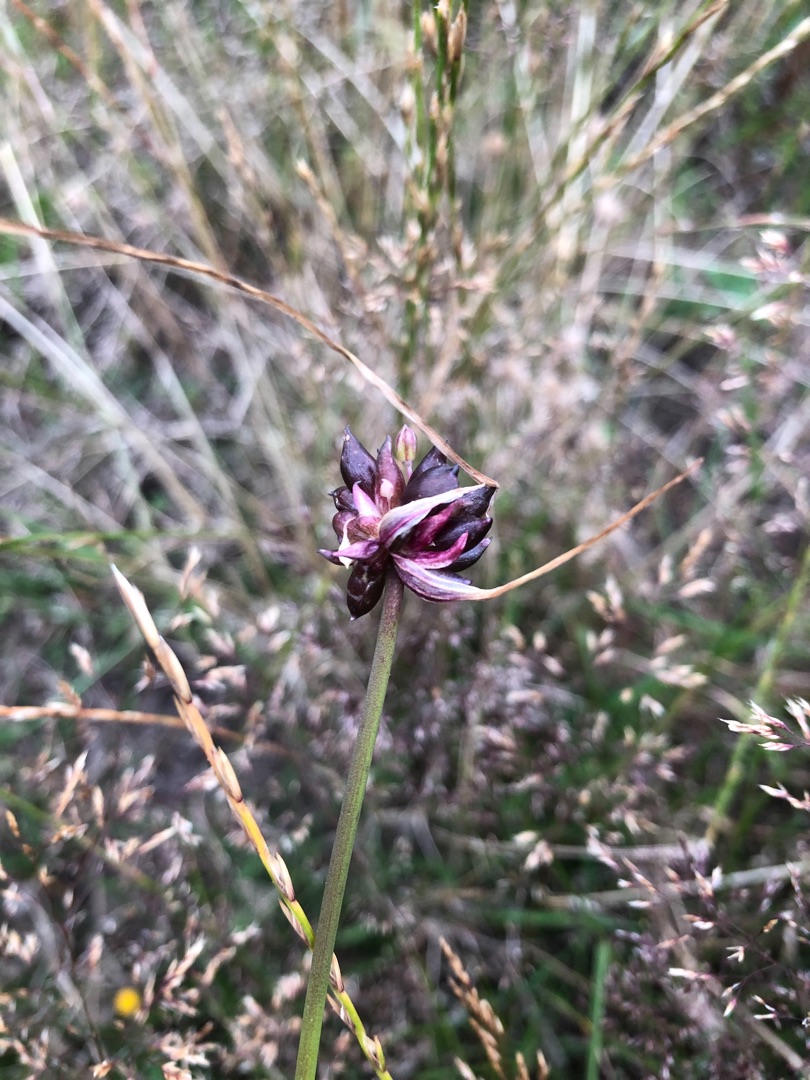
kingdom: Plantae
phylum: Tracheophyta
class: Liliopsida
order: Asparagales
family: Amaryllidaceae
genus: Allium
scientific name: Allium oleraceum
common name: Vild løg
